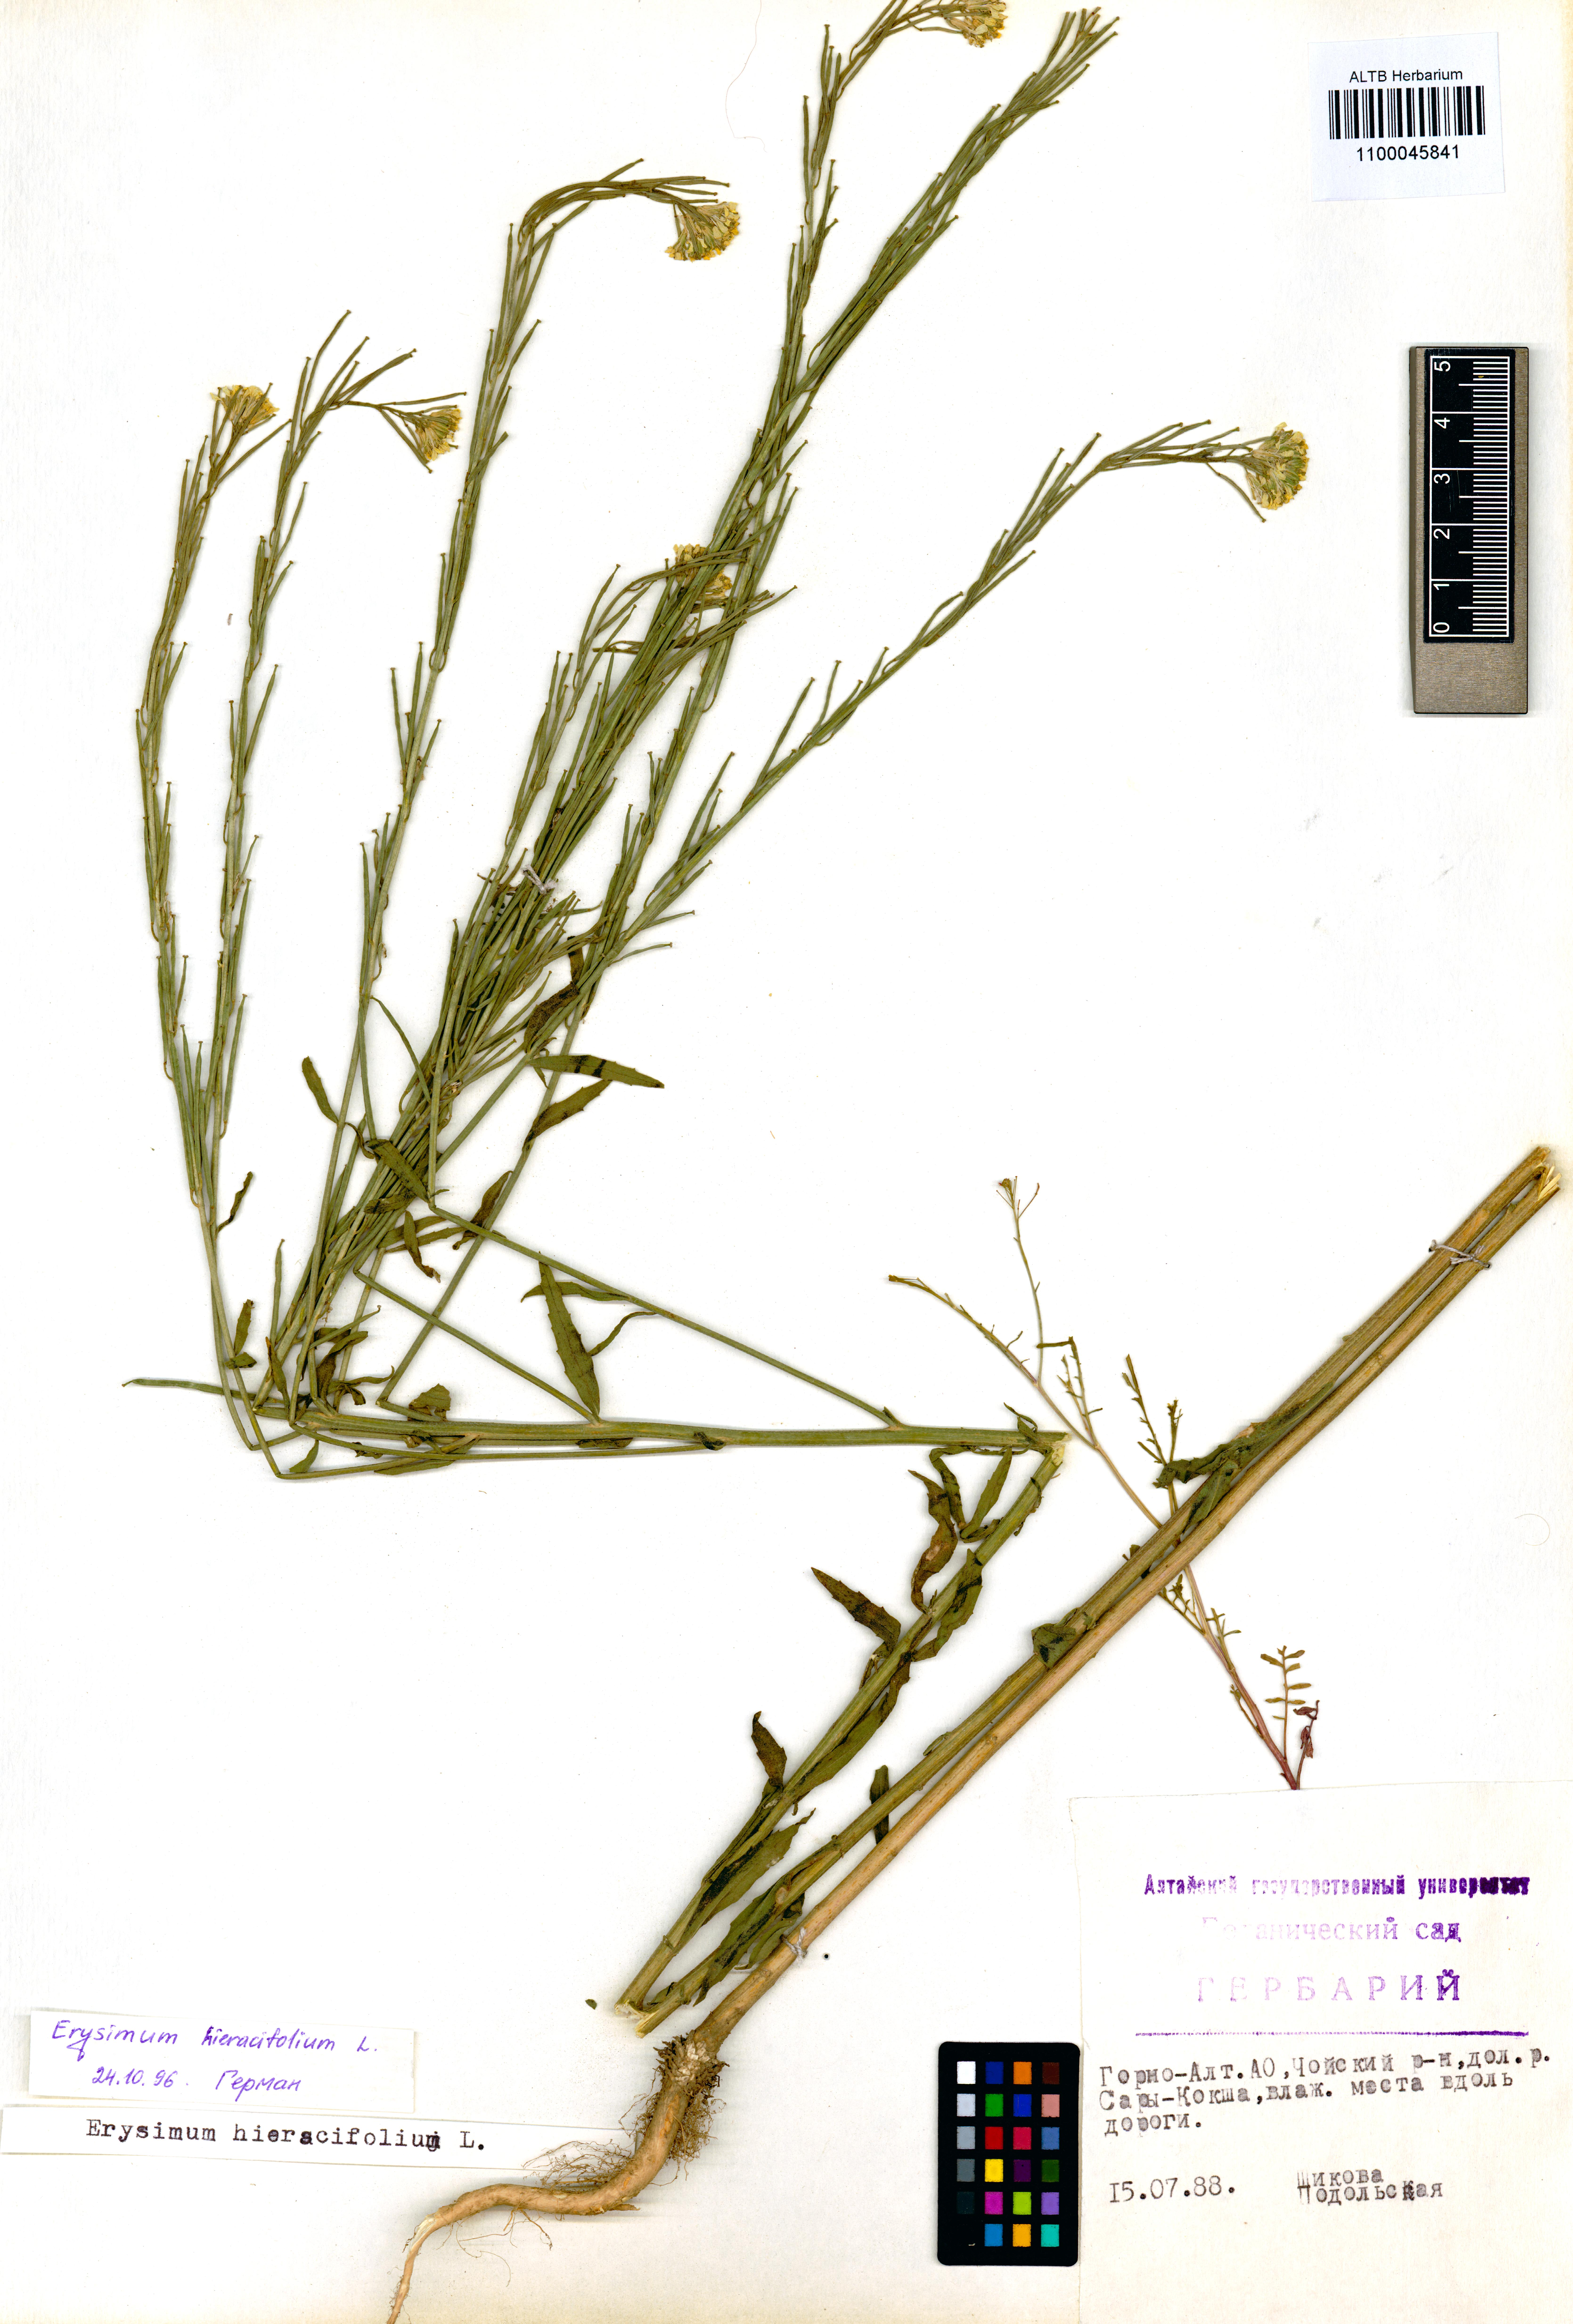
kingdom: Plantae
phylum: Tracheophyta
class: Magnoliopsida
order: Brassicales
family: Brassicaceae
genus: Erysimum
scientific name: Erysimum hieraciifolium
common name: European wallflower
